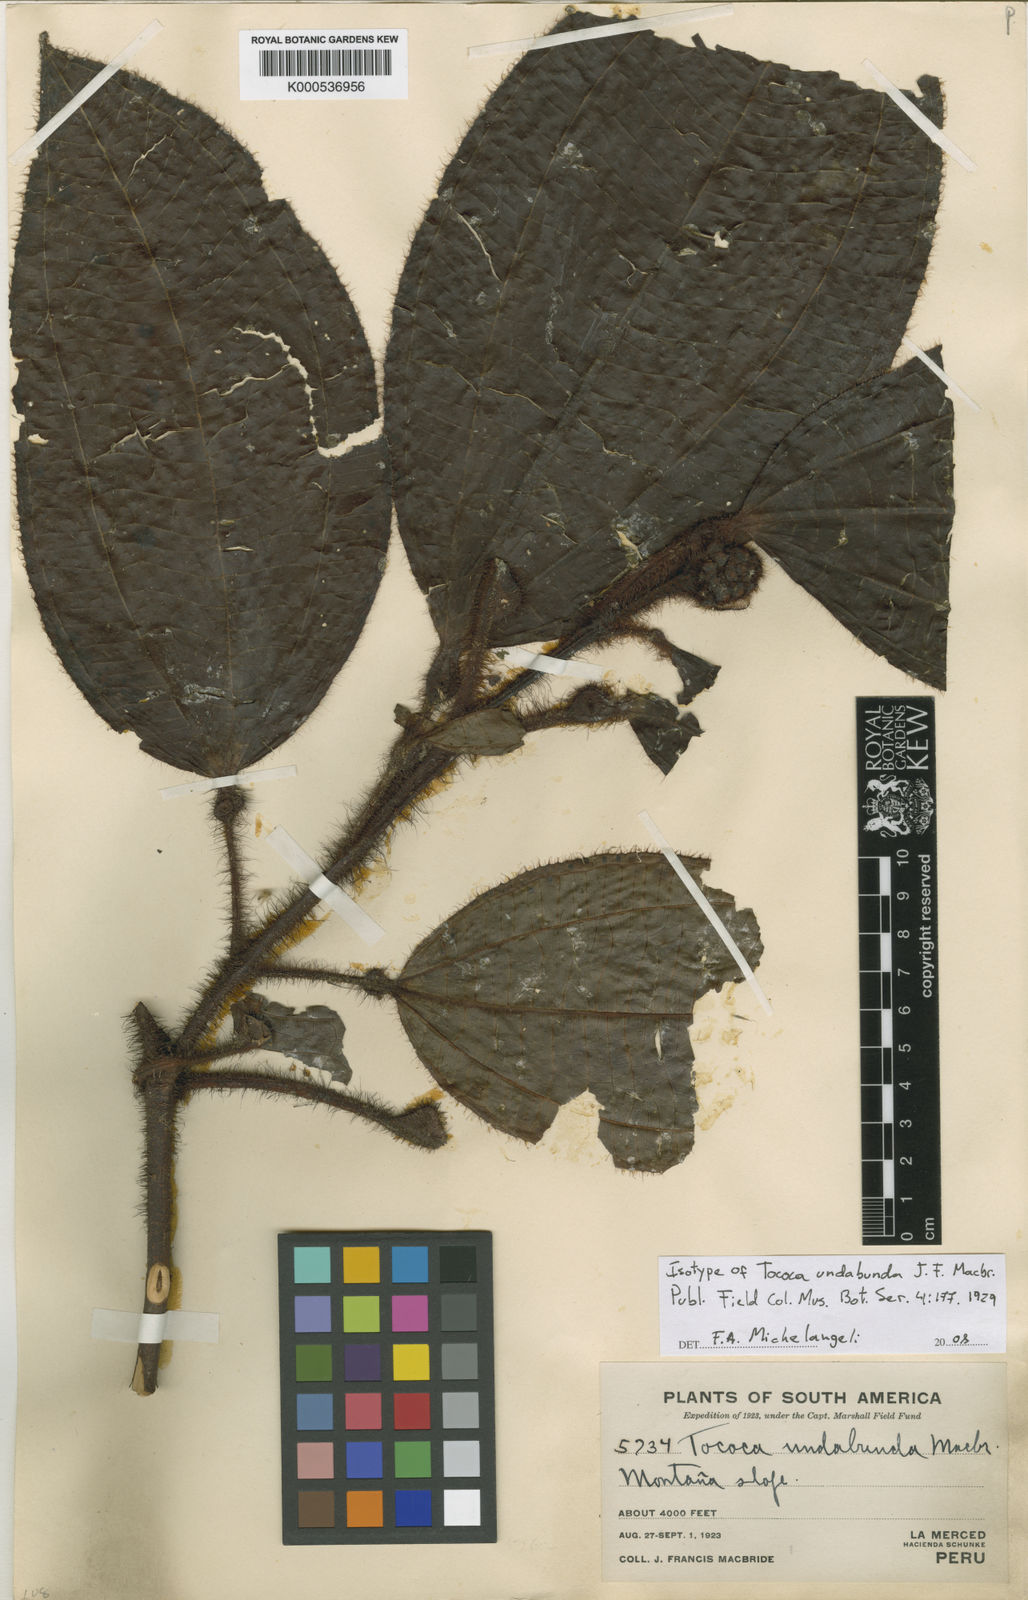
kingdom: Plantae
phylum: Tracheophyta
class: Magnoliopsida
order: Myrtales
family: Melastomataceae
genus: Miconia
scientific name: Miconia undabunda
